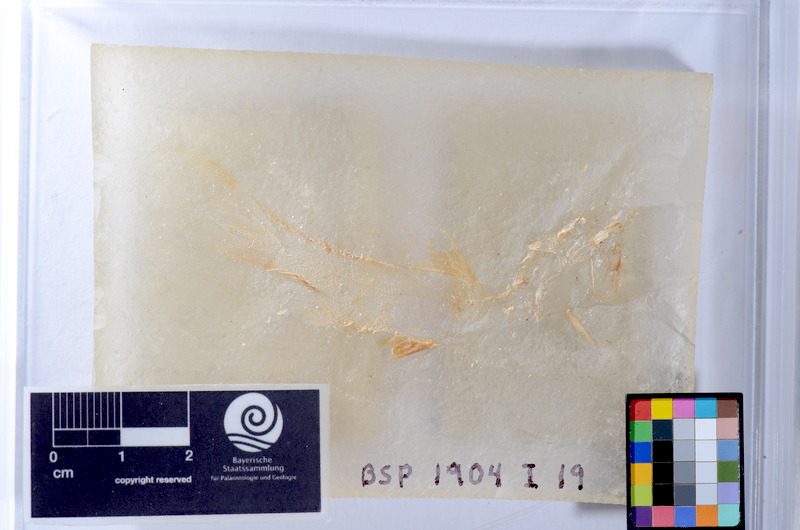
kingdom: Animalia
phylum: Chordata
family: Coccolepididae
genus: Coccolepis
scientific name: Coccolepis bucklandi
